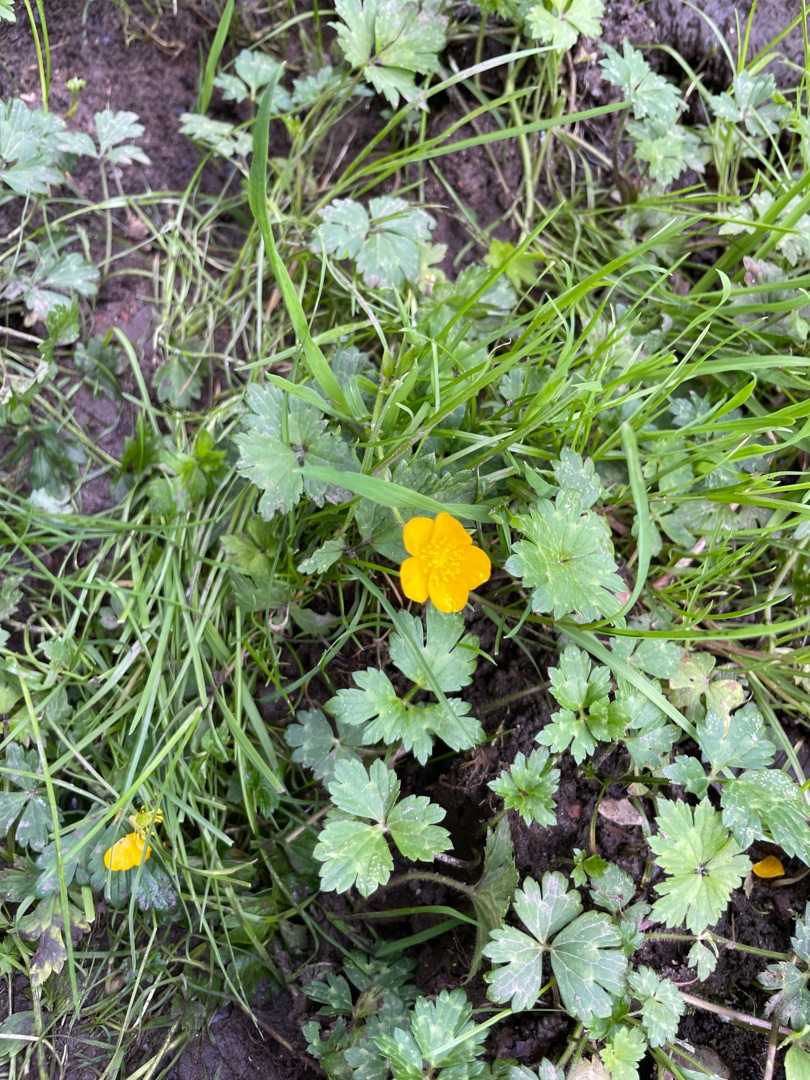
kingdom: Plantae
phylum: Tracheophyta
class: Magnoliopsida
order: Ranunculales
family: Ranunculaceae
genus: Ranunculus
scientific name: Ranunculus repens
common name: Lav ranunkel
